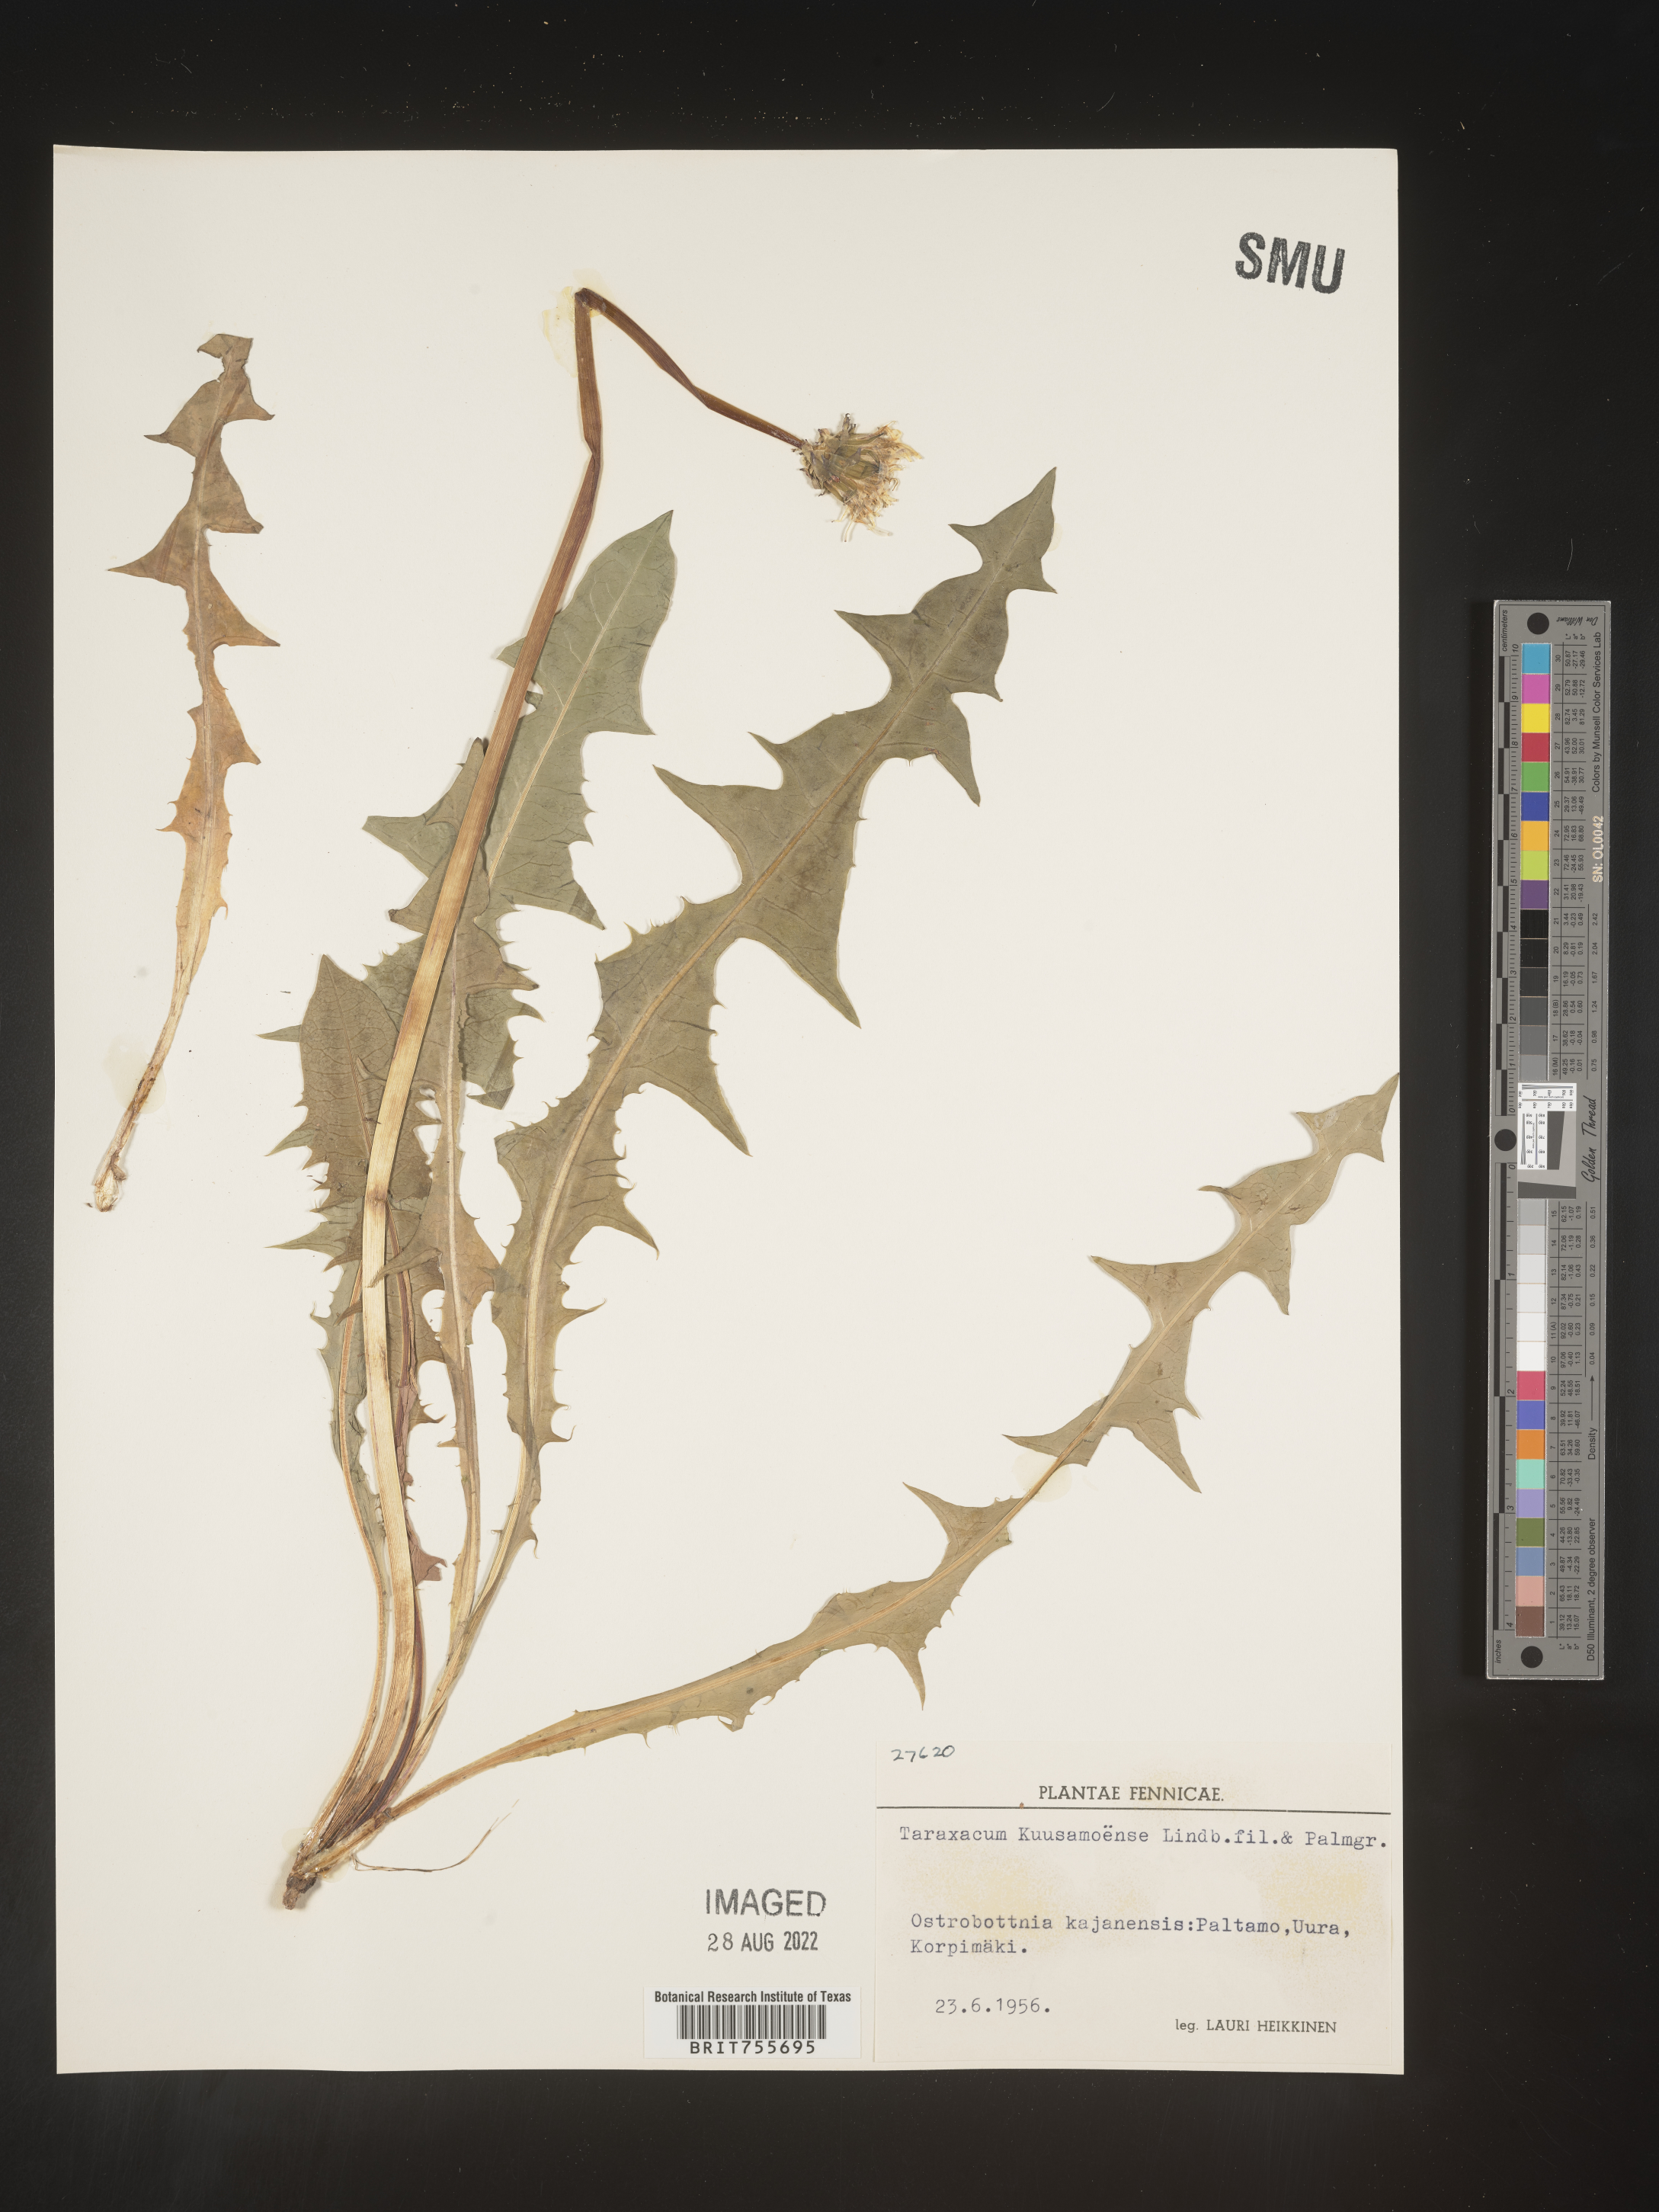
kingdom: Plantae
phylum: Tracheophyta
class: Magnoliopsida
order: Asterales
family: Asteraceae
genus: Taraxacum
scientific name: Taraxacum
